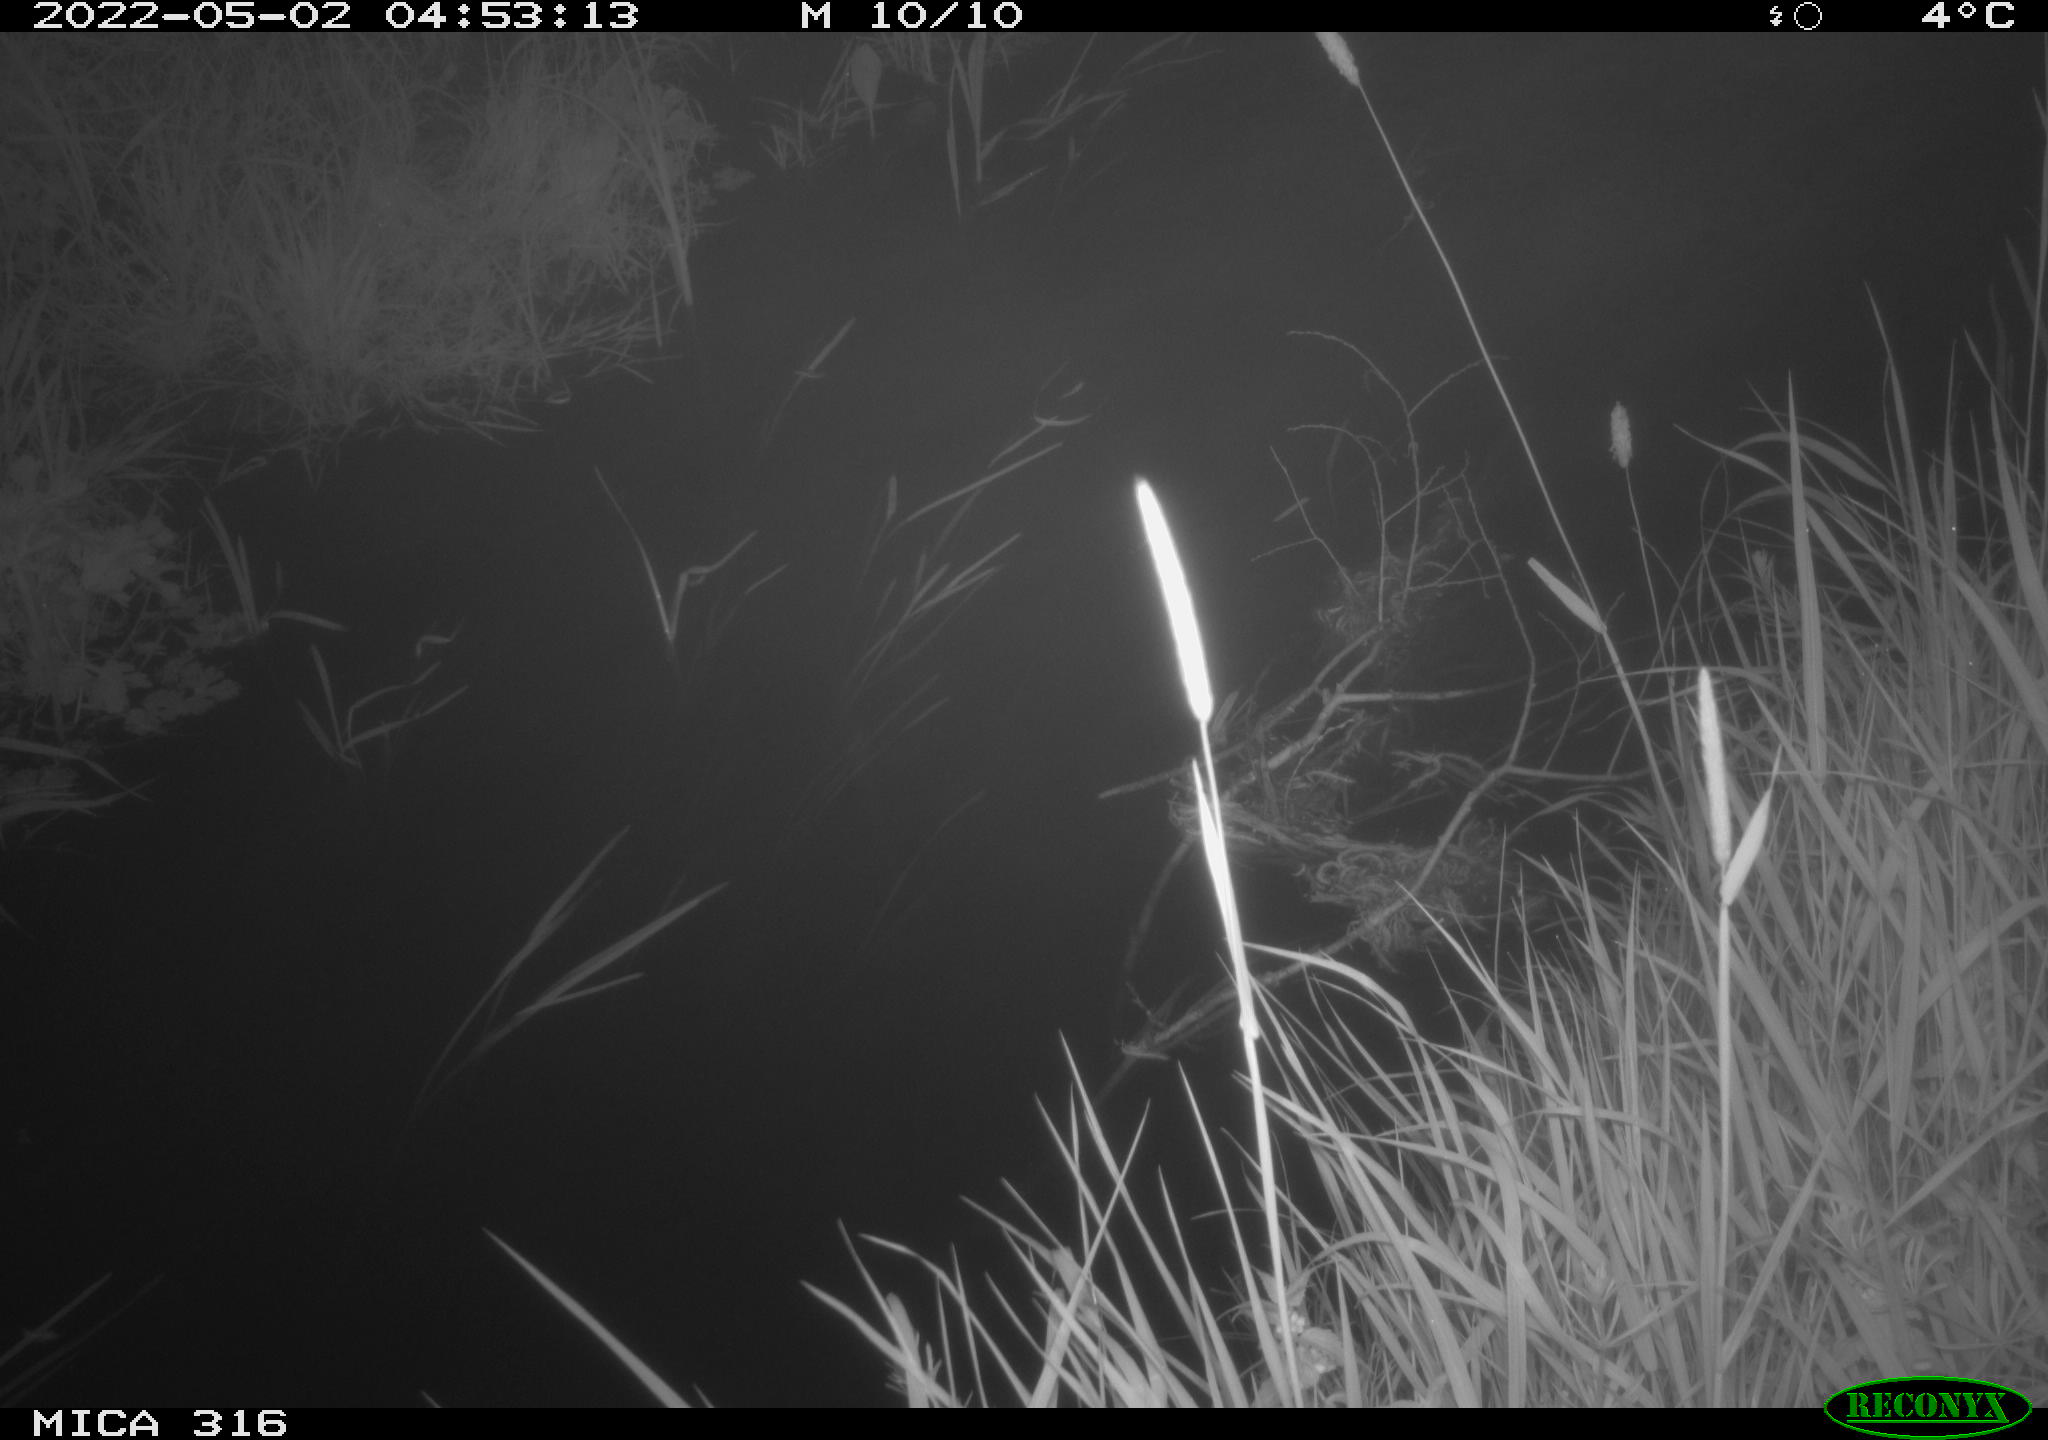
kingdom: Animalia
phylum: Chordata
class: Aves
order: Anseriformes
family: Anatidae
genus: Anas
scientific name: Anas platyrhynchos
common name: Mallard
